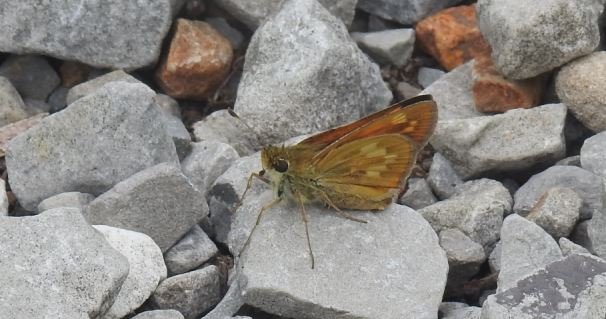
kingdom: Animalia
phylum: Arthropoda
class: Insecta
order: Lepidoptera
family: Hesperiidae
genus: Hesperia
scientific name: Hesperia sassacus
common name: Sassacus Skipper
